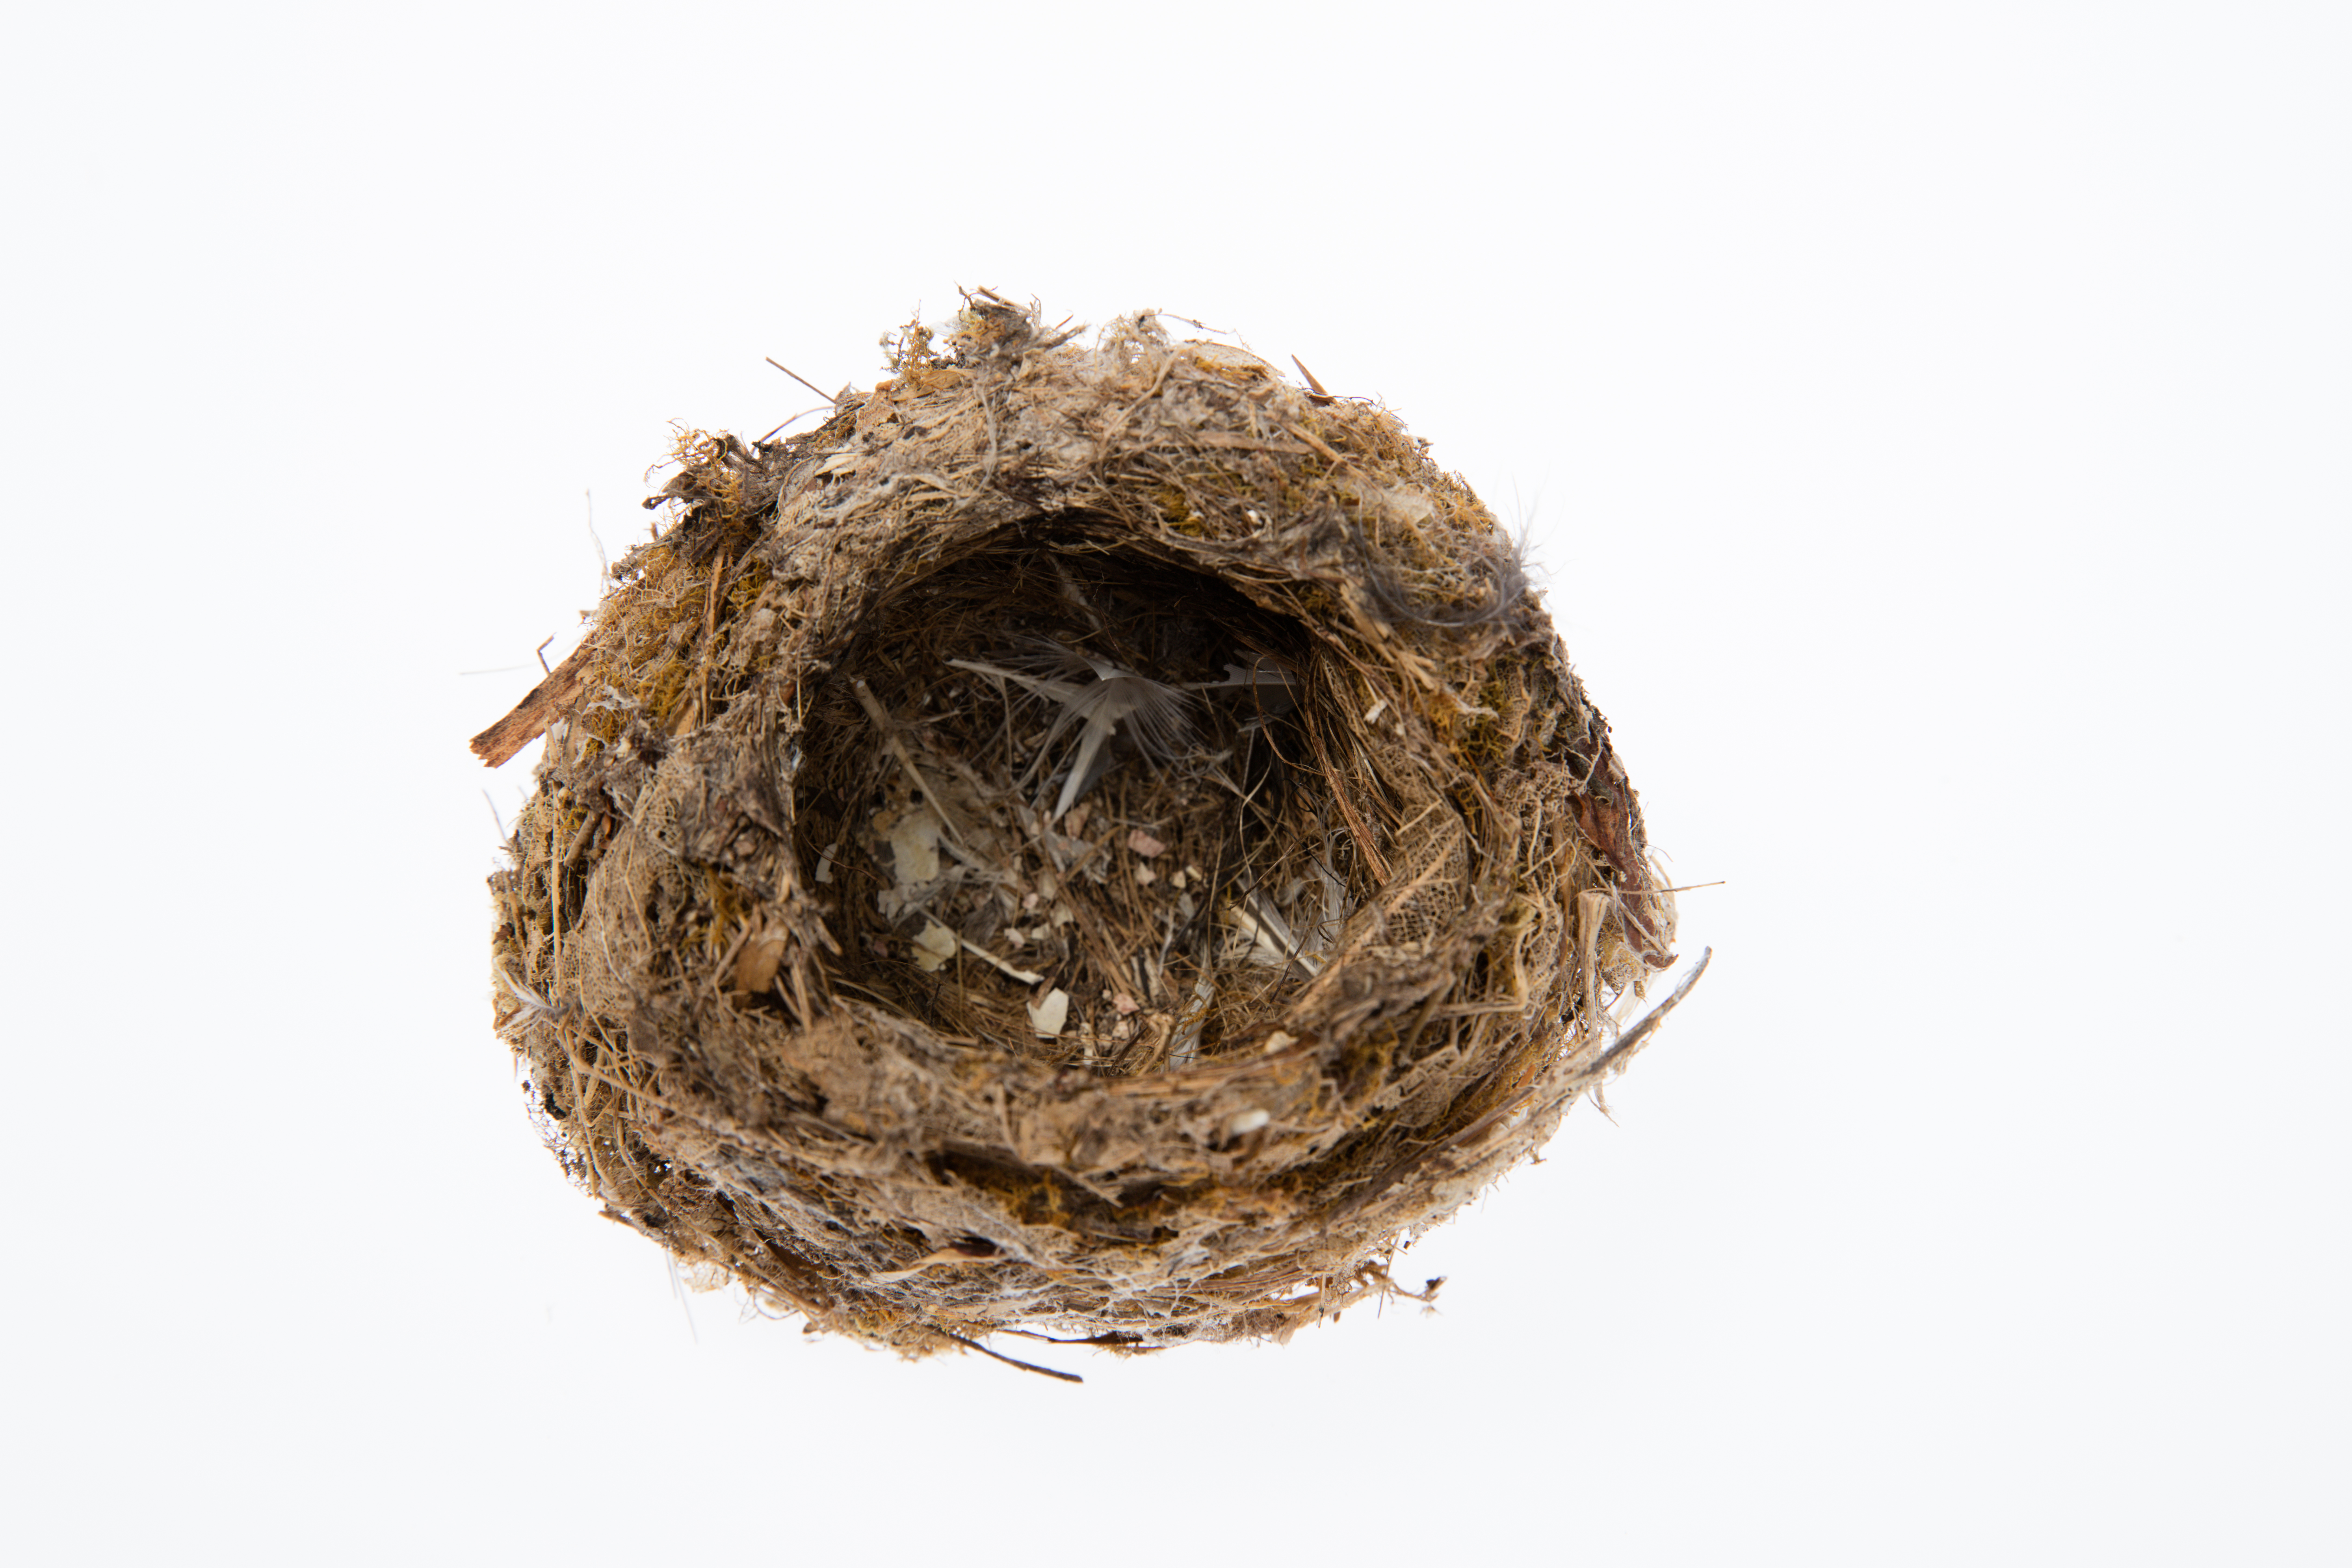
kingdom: Animalia
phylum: Chordata
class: Aves
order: Passeriformes
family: Acanthizidae
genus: Mohoua
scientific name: Mohoua albicilla
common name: Whitehead
